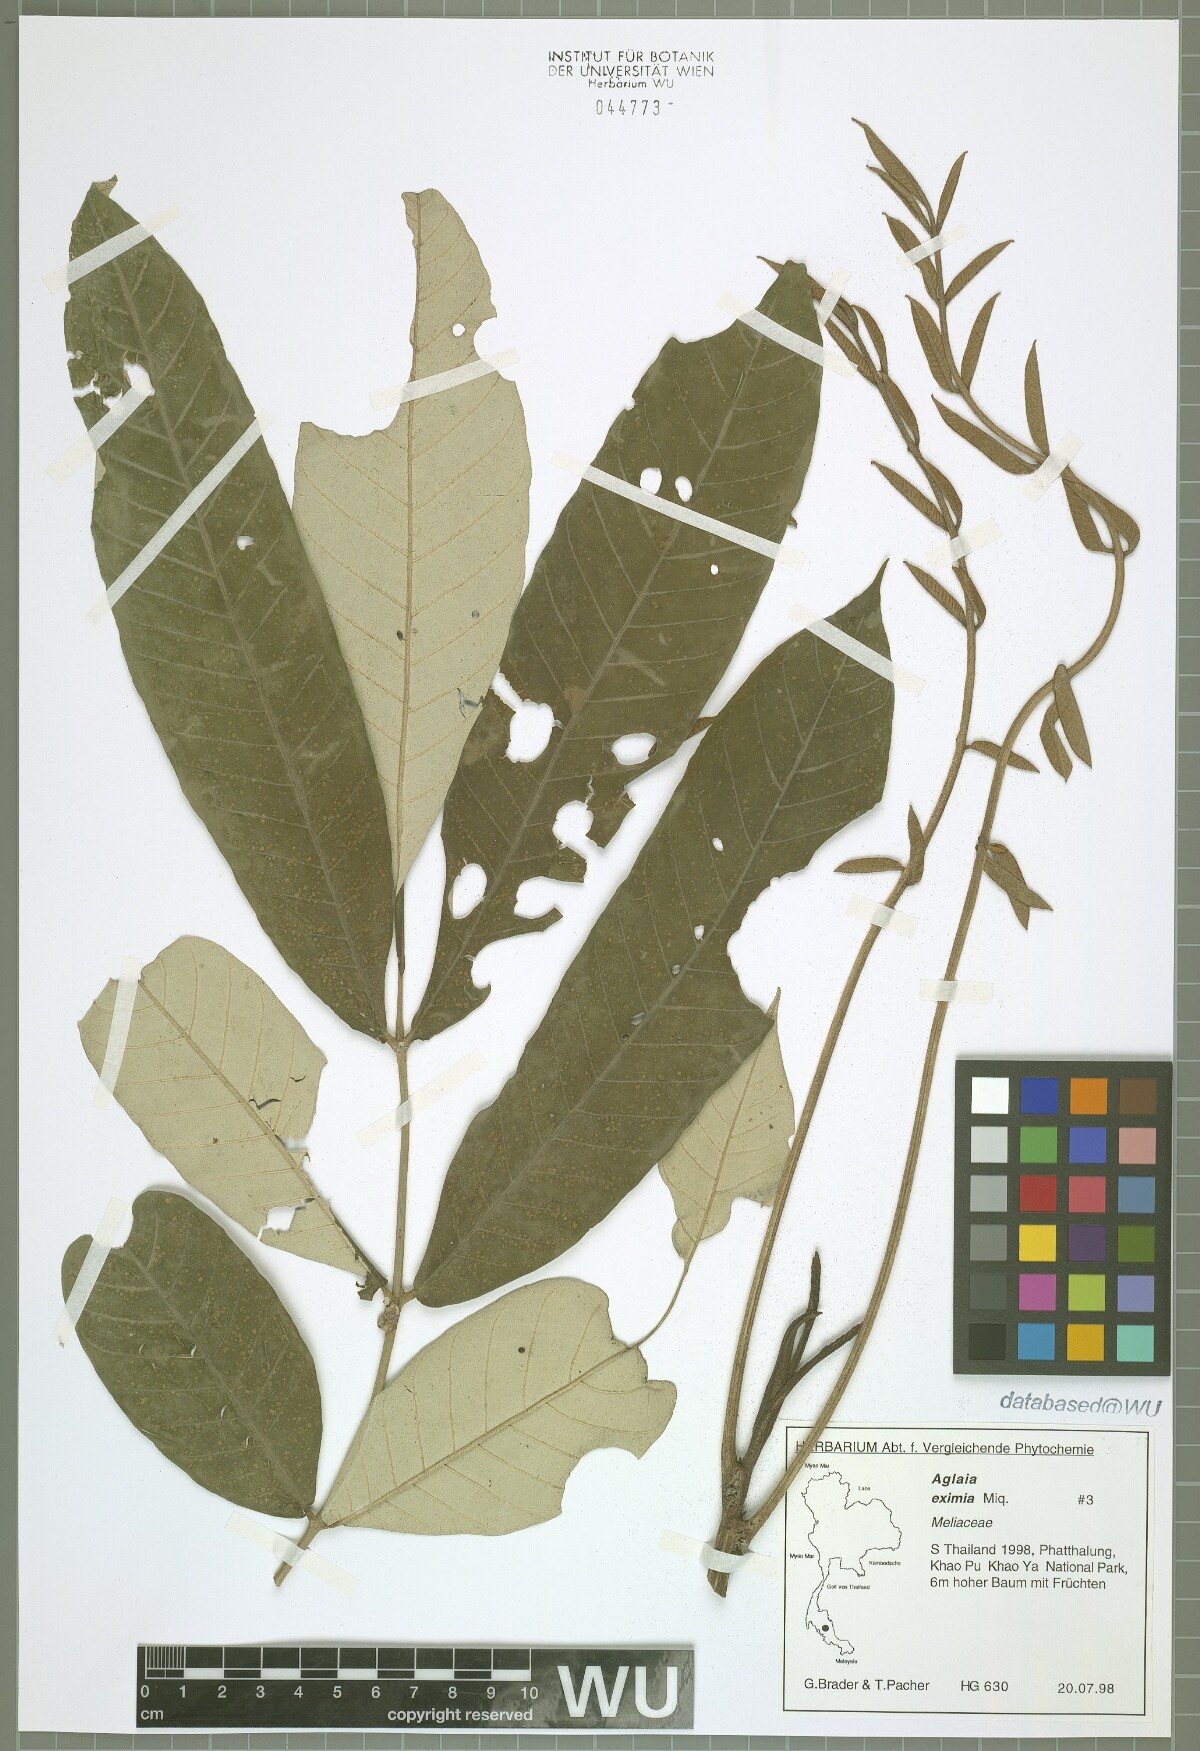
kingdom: Plantae
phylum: Tracheophyta
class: Magnoliopsida
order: Sapindales
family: Meliaceae
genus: Aglaia
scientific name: Aglaia eximia
